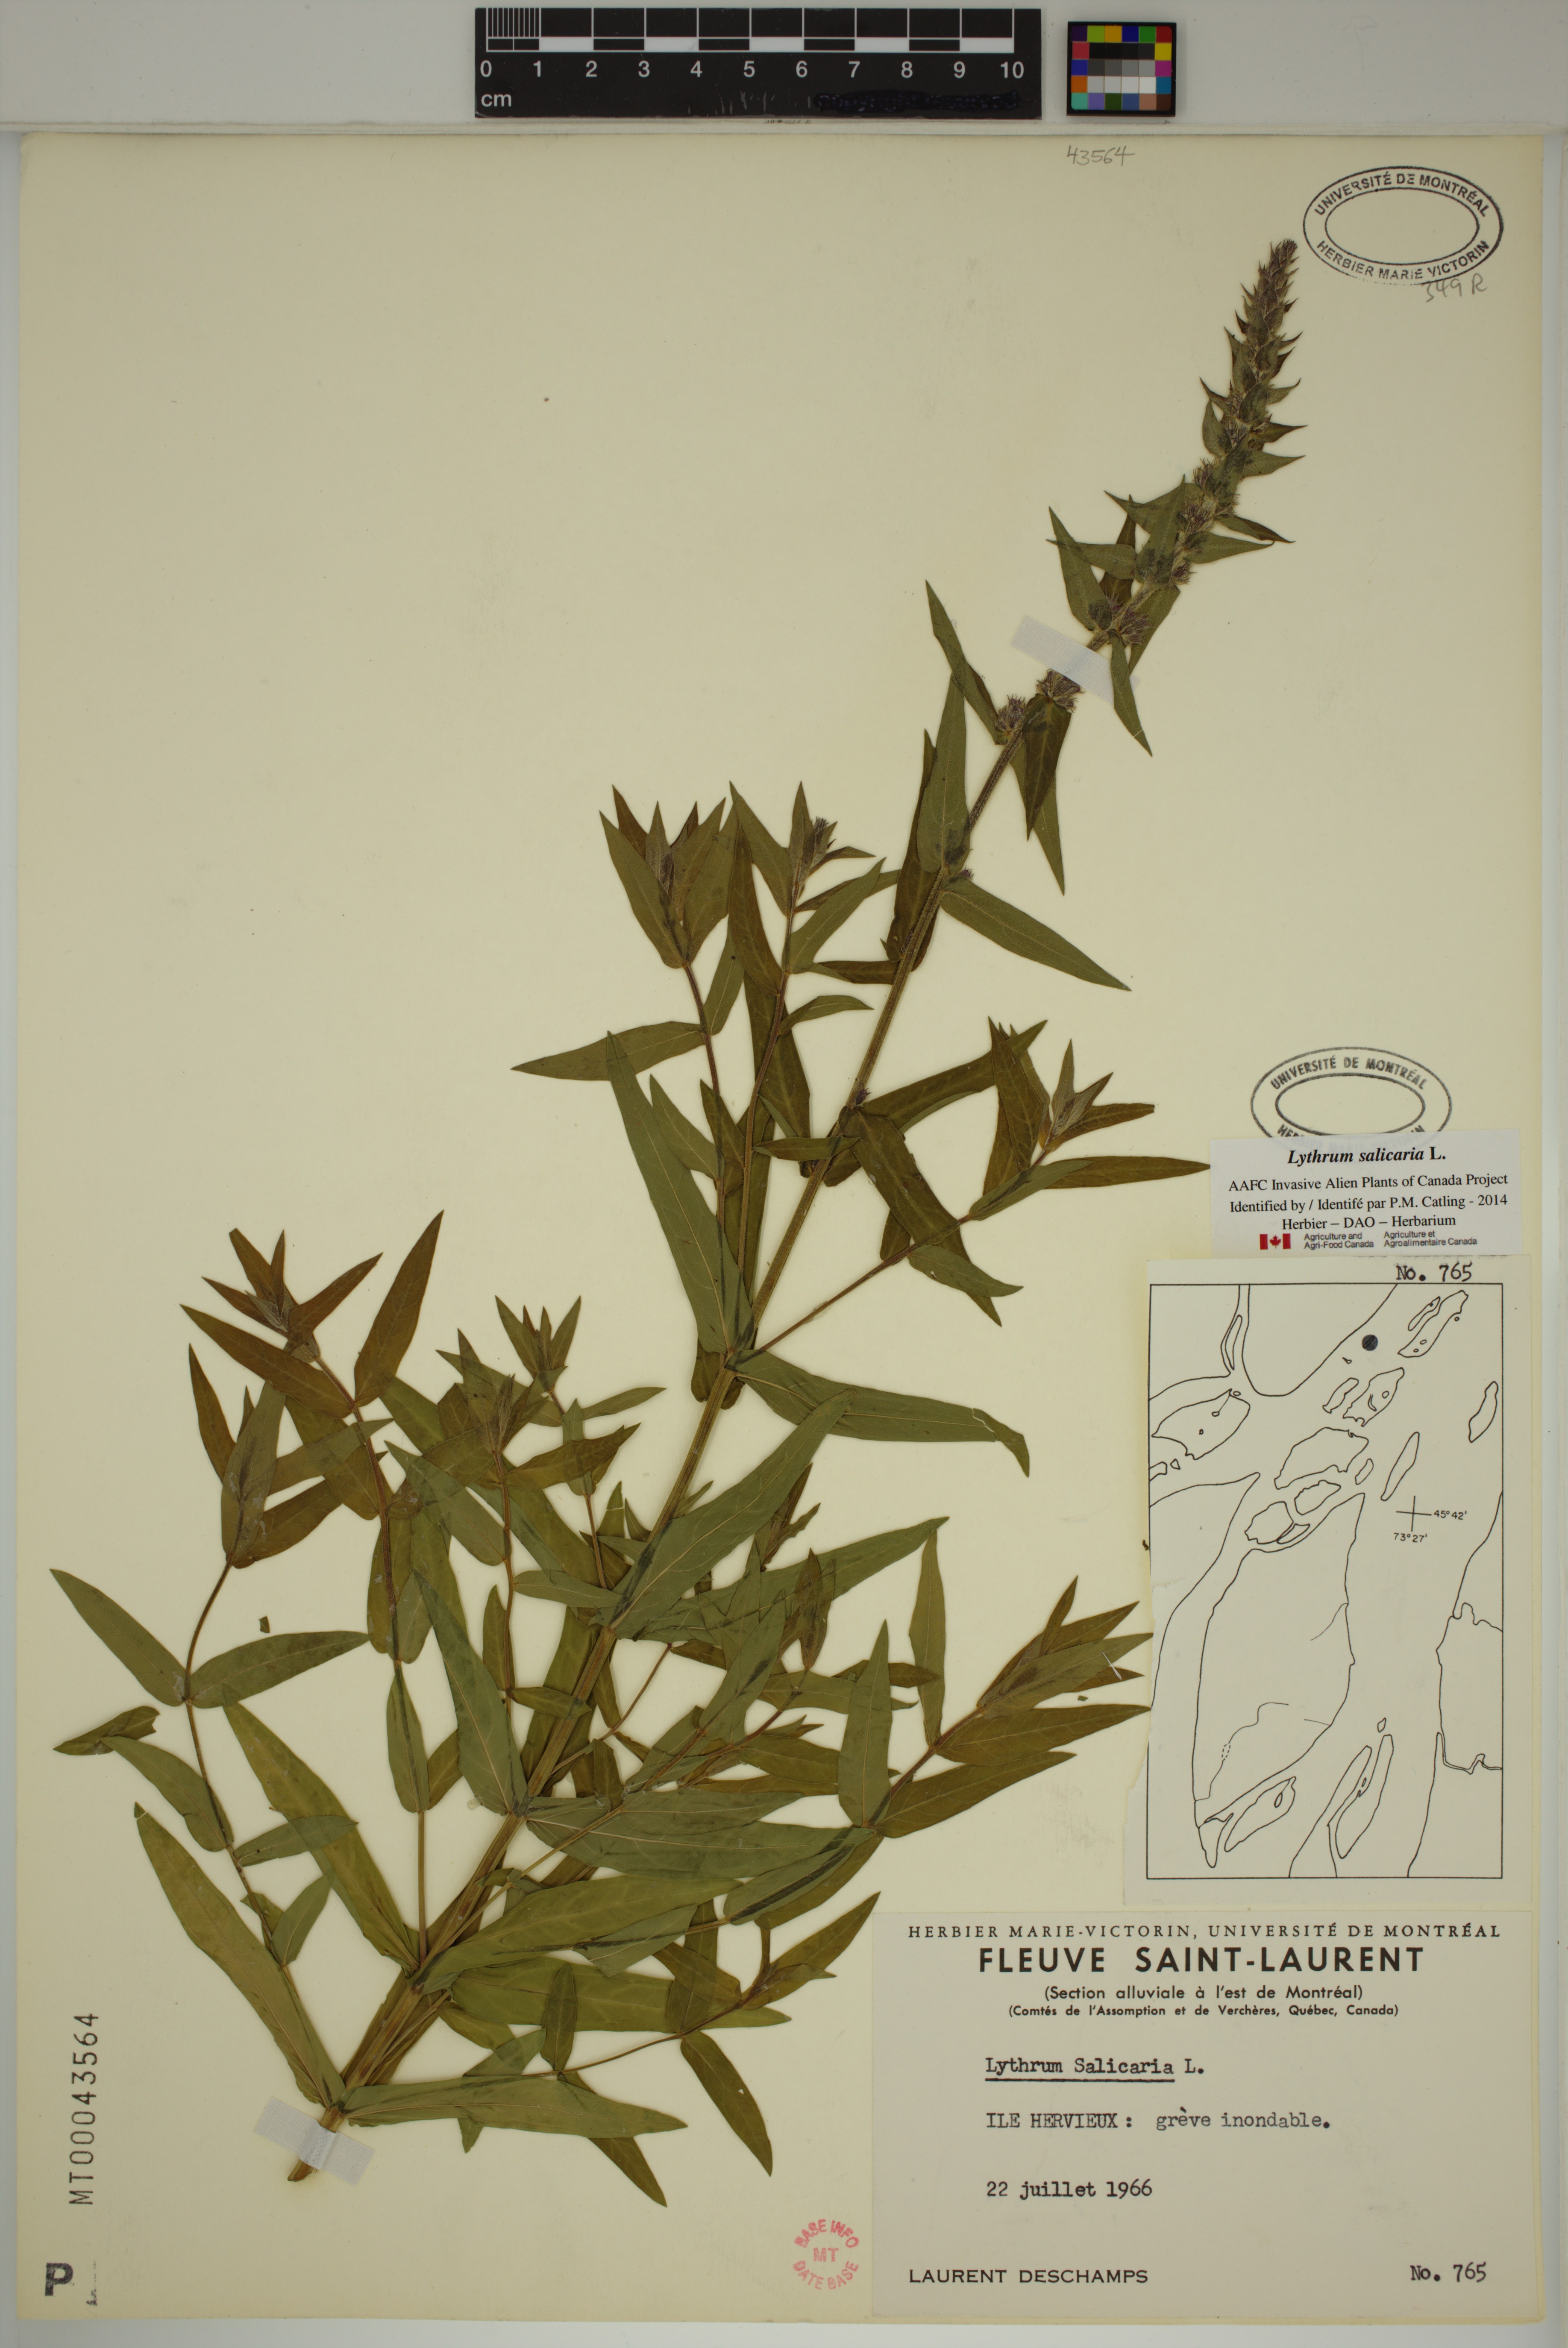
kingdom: Plantae
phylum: Tracheophyta
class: Magnoliopsida
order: Myrtales
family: Lythraceae
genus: Lythrum
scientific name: Lythrum salicaria
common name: Purple loosestrife
